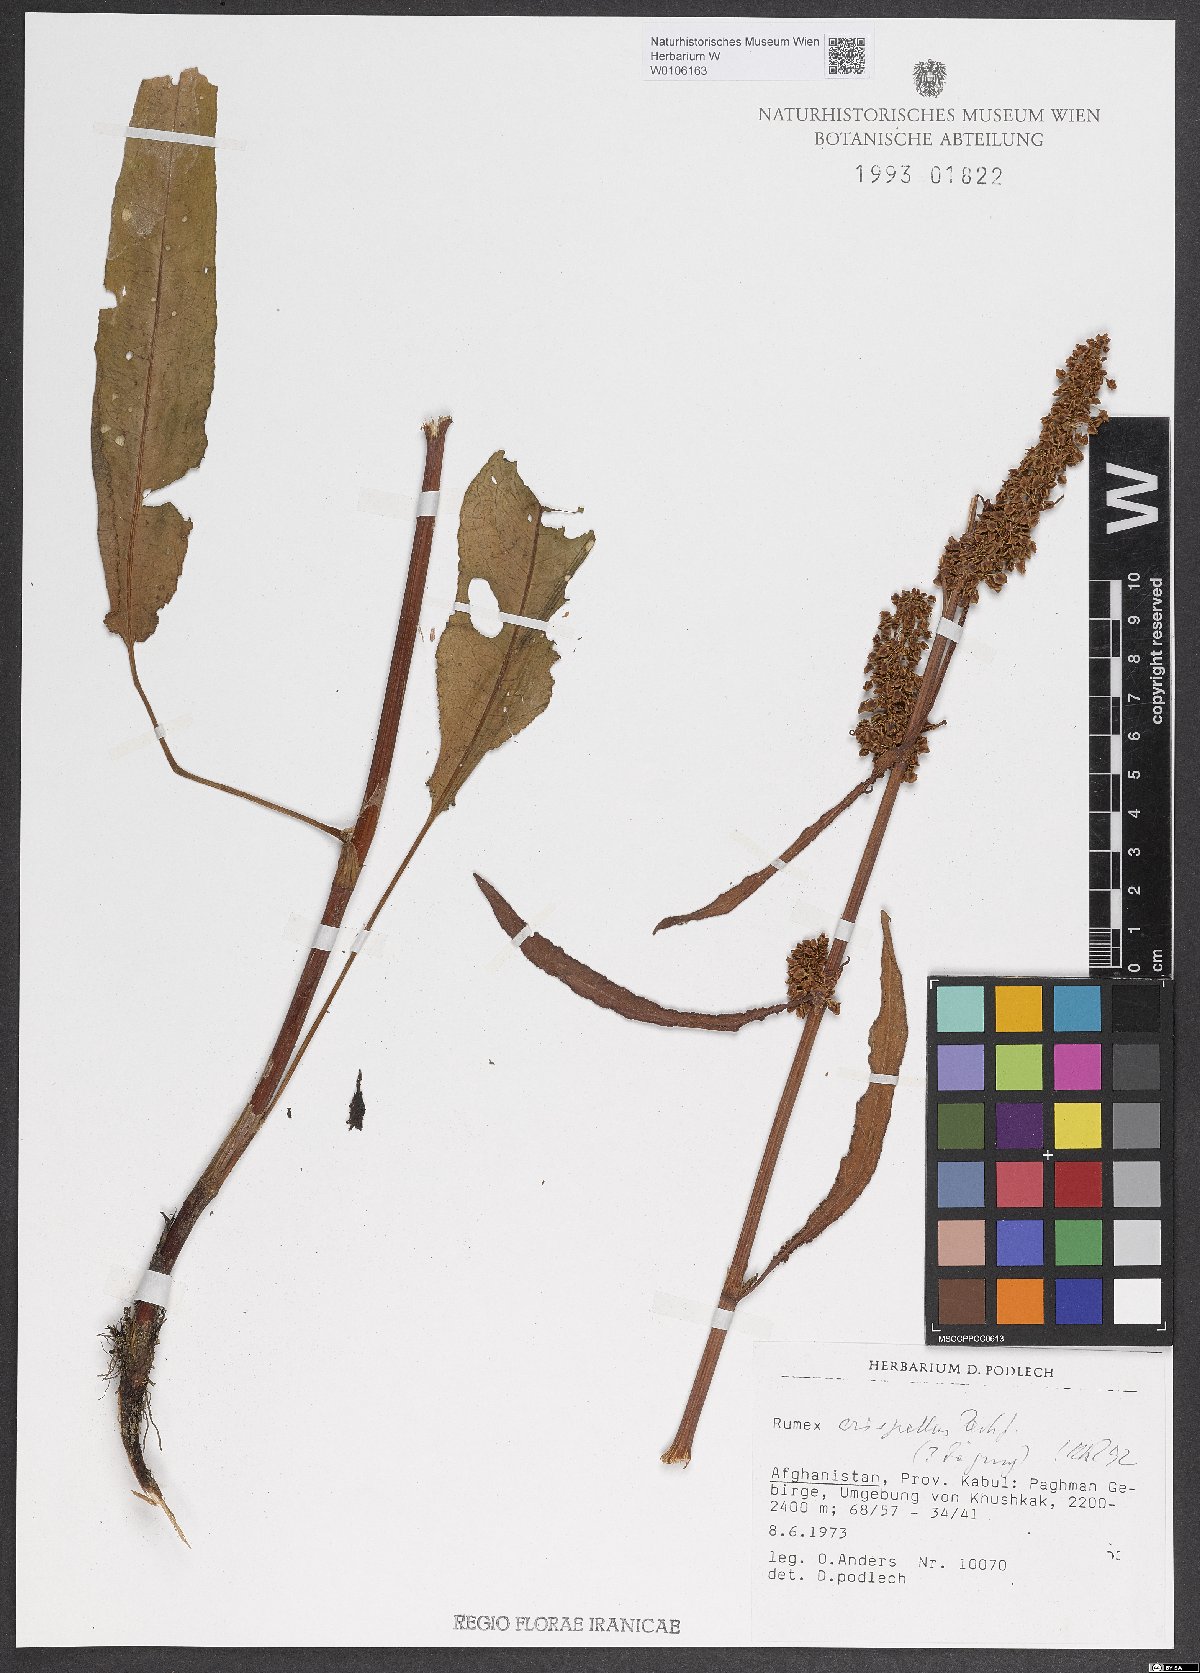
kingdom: Plantae
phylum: Tracheophyta
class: Magnoliopsida
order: Caryophyllales
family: Polygonaceae
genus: Rumex
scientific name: Rumex crispellus
